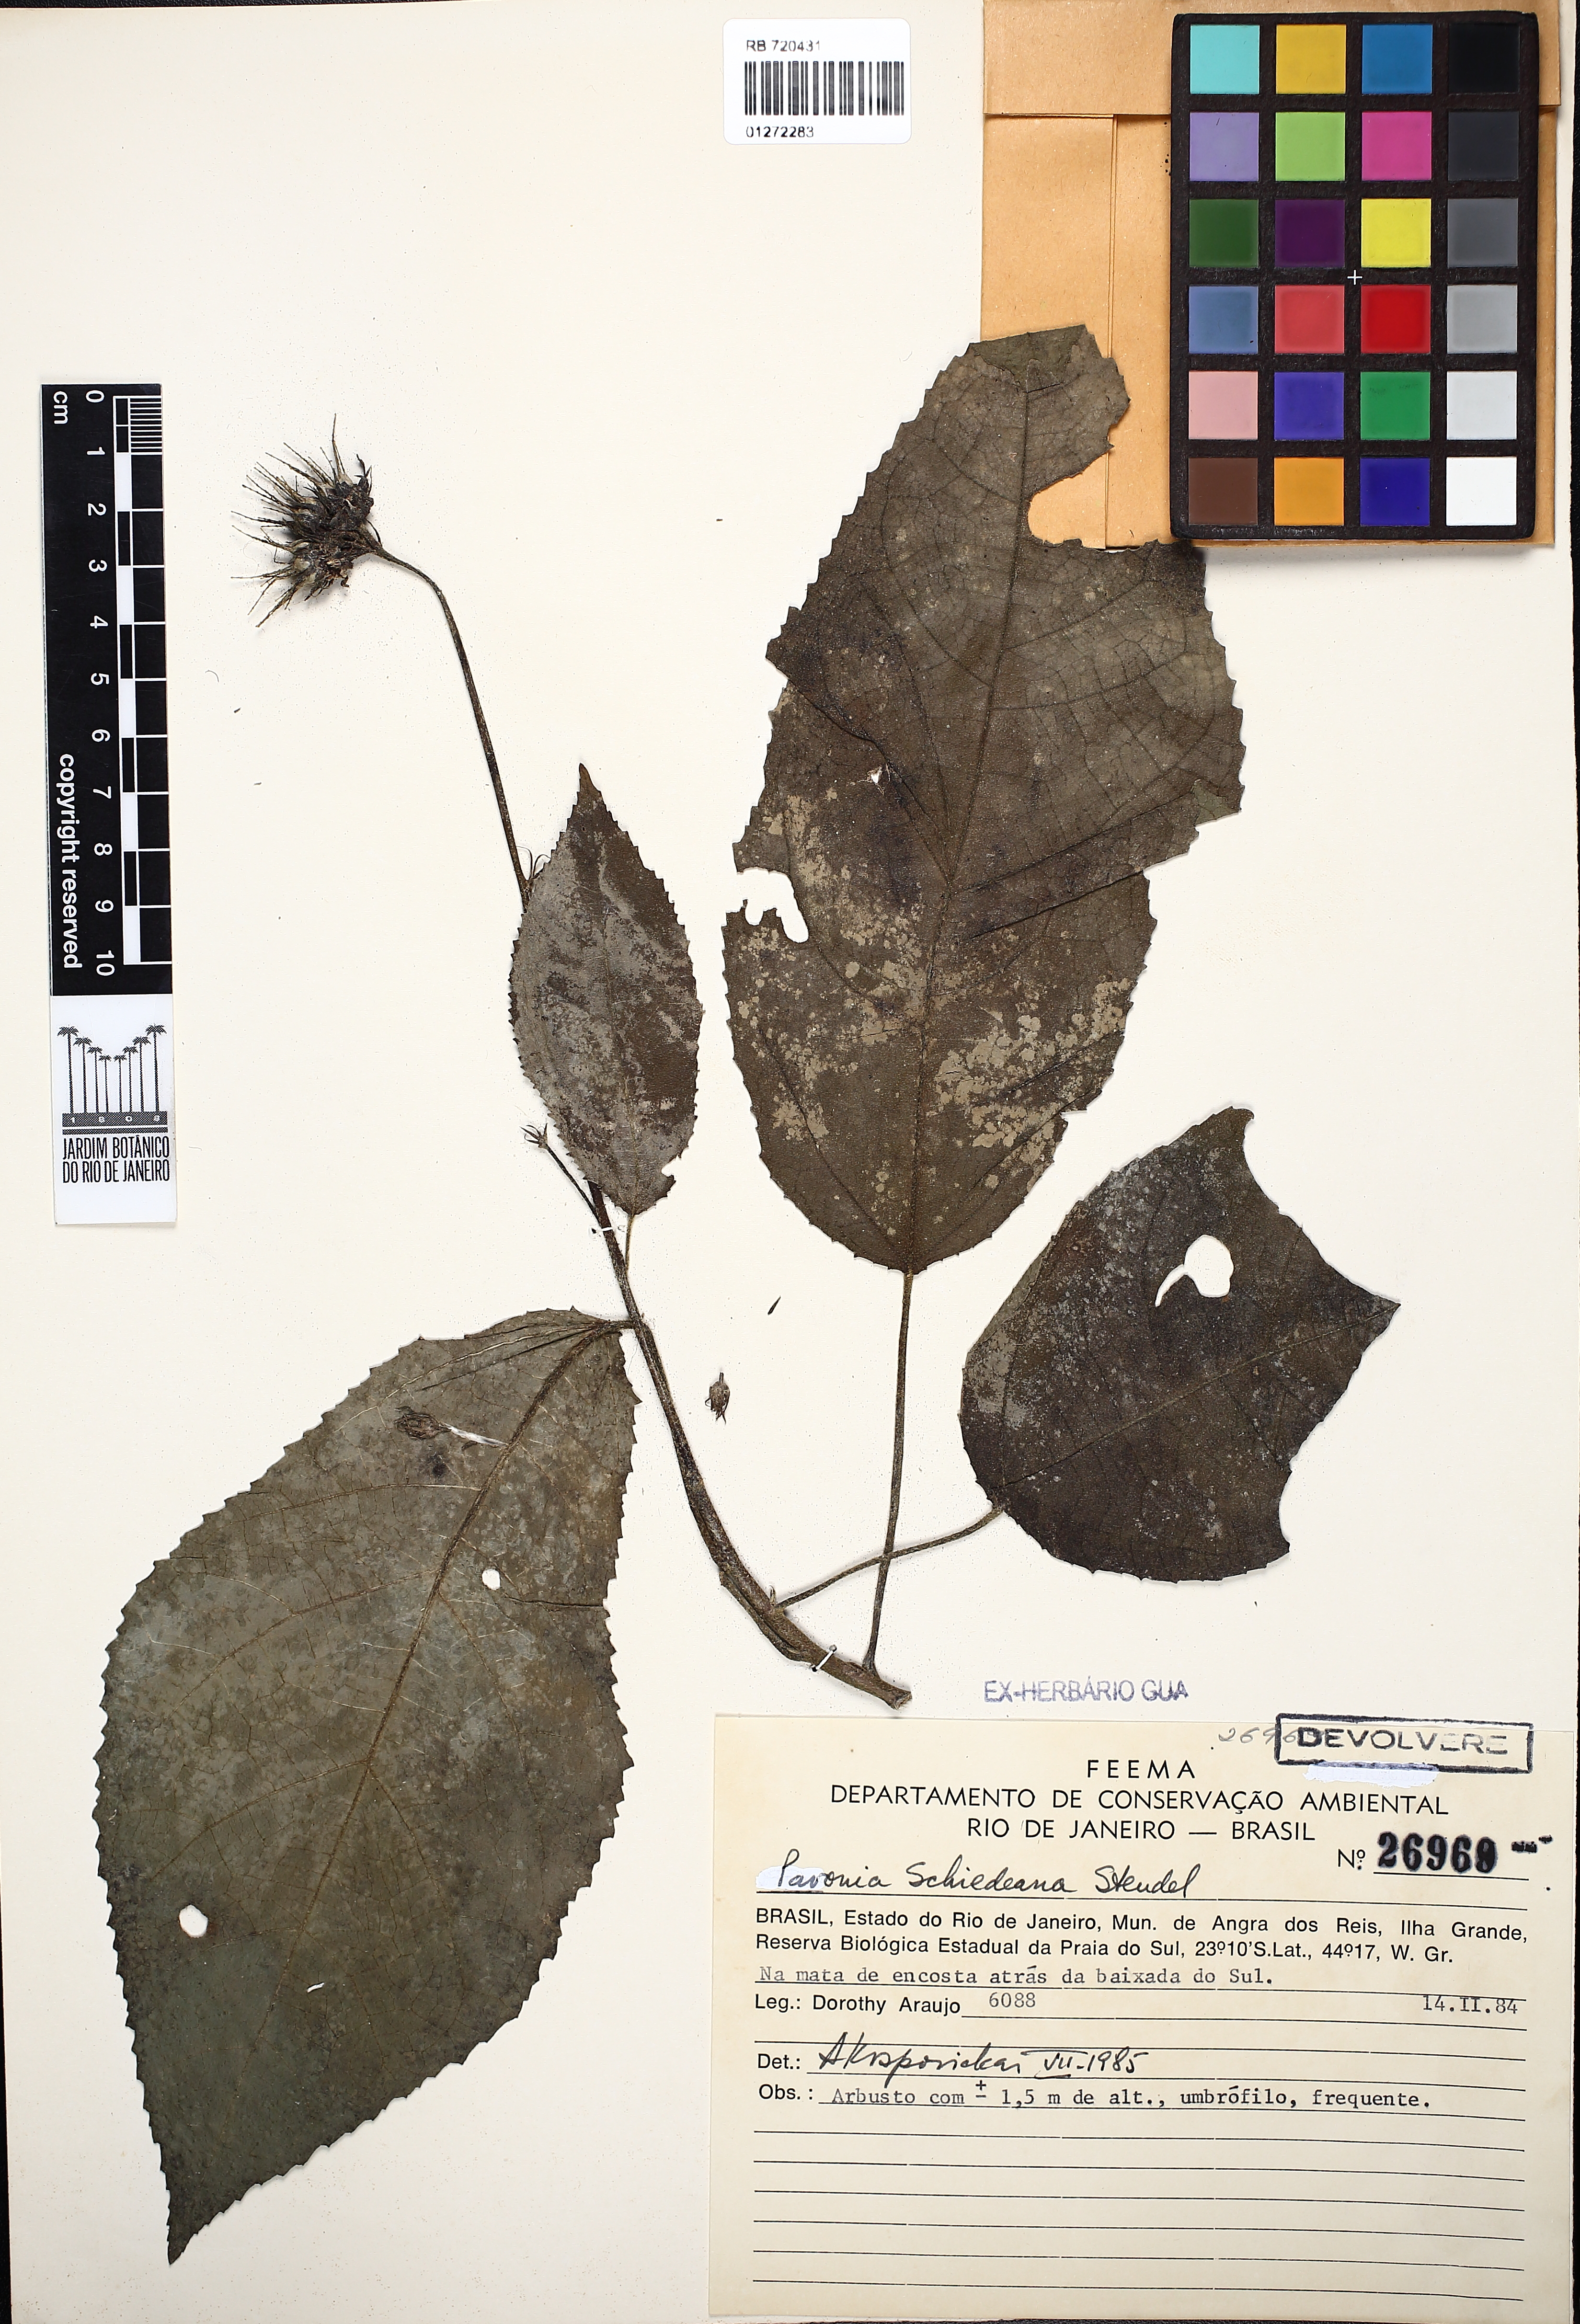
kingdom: Plantae
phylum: Tracheophyta
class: Magnoliopsida
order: Malvales
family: Malvaceae
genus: Pavonia
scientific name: Pavonia schiedeana
